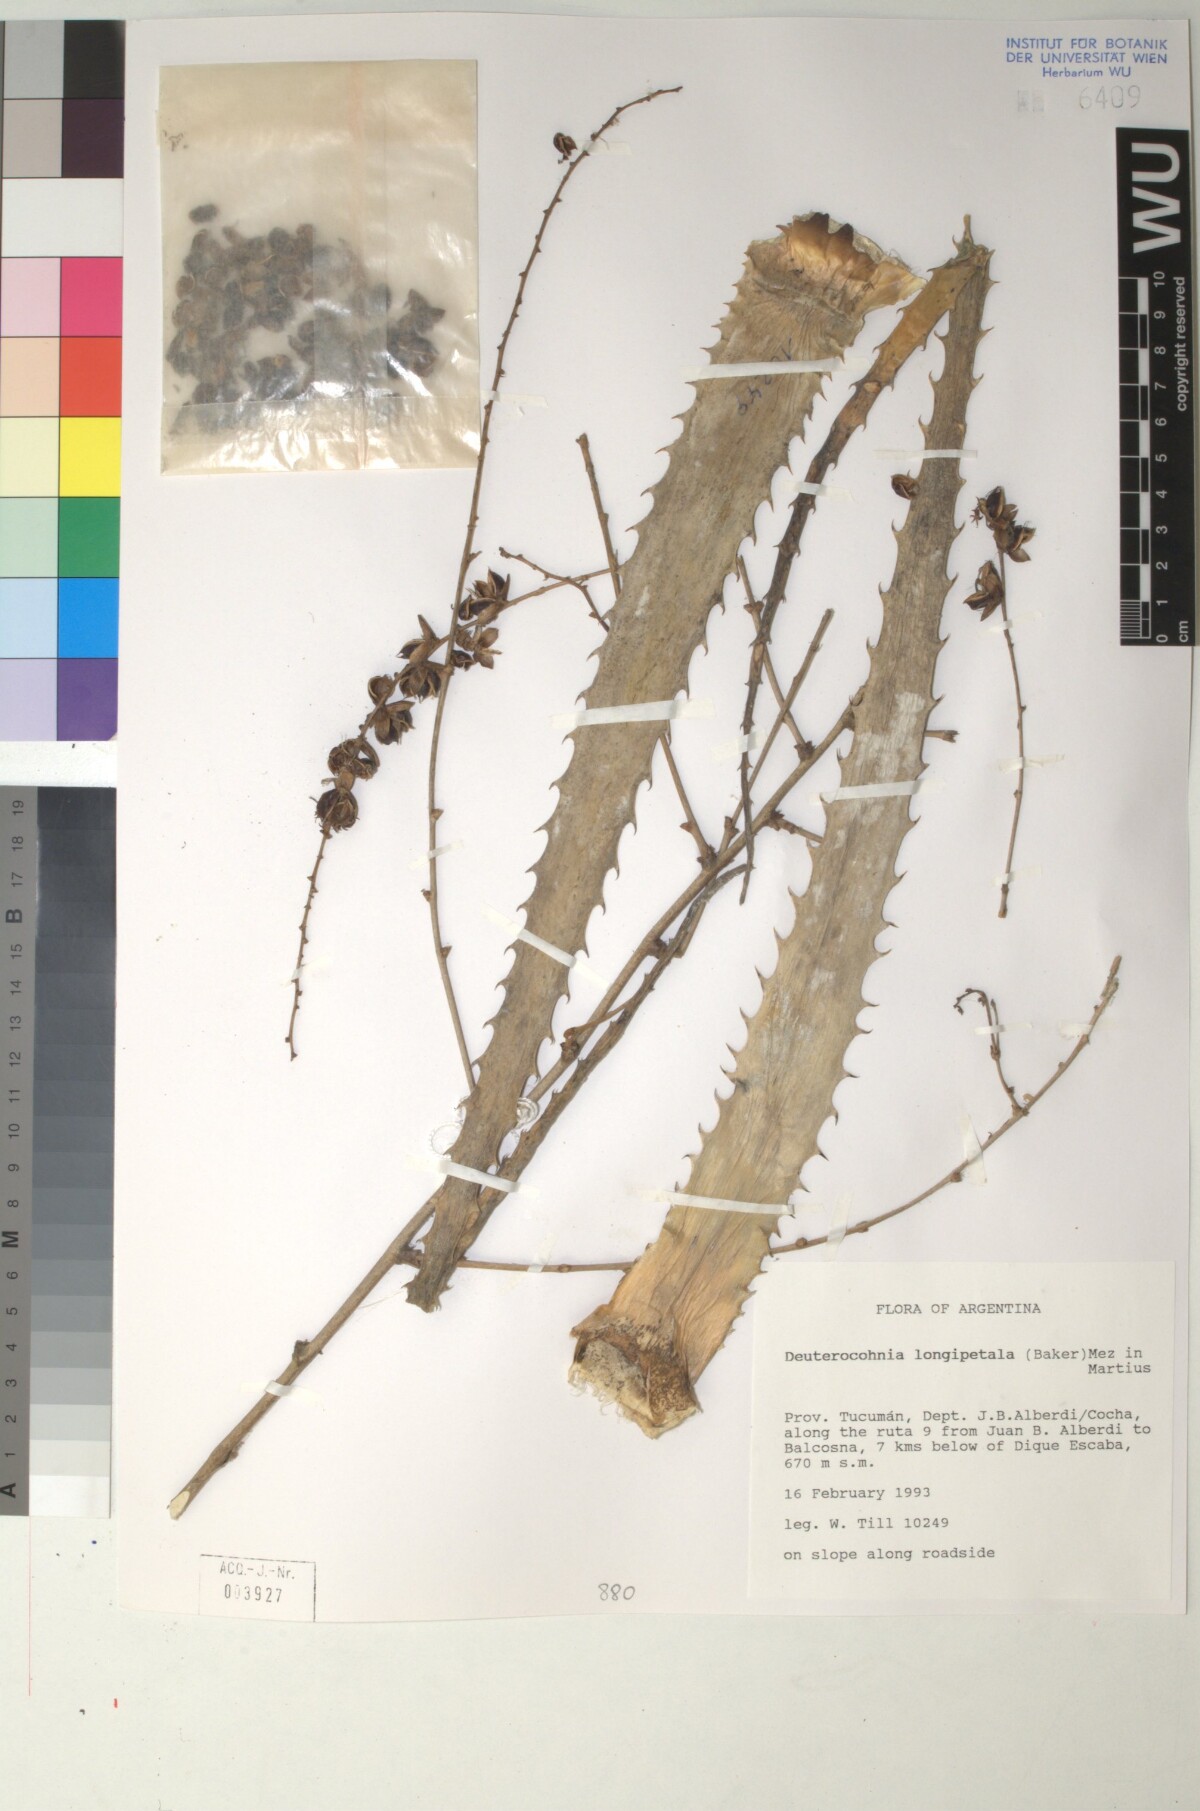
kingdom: Plantae
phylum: Tracheophyta
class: Liliopsida
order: Poales
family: Bromeliaceae
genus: Deuterocohnia
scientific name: Deuterocohnia longipetala
